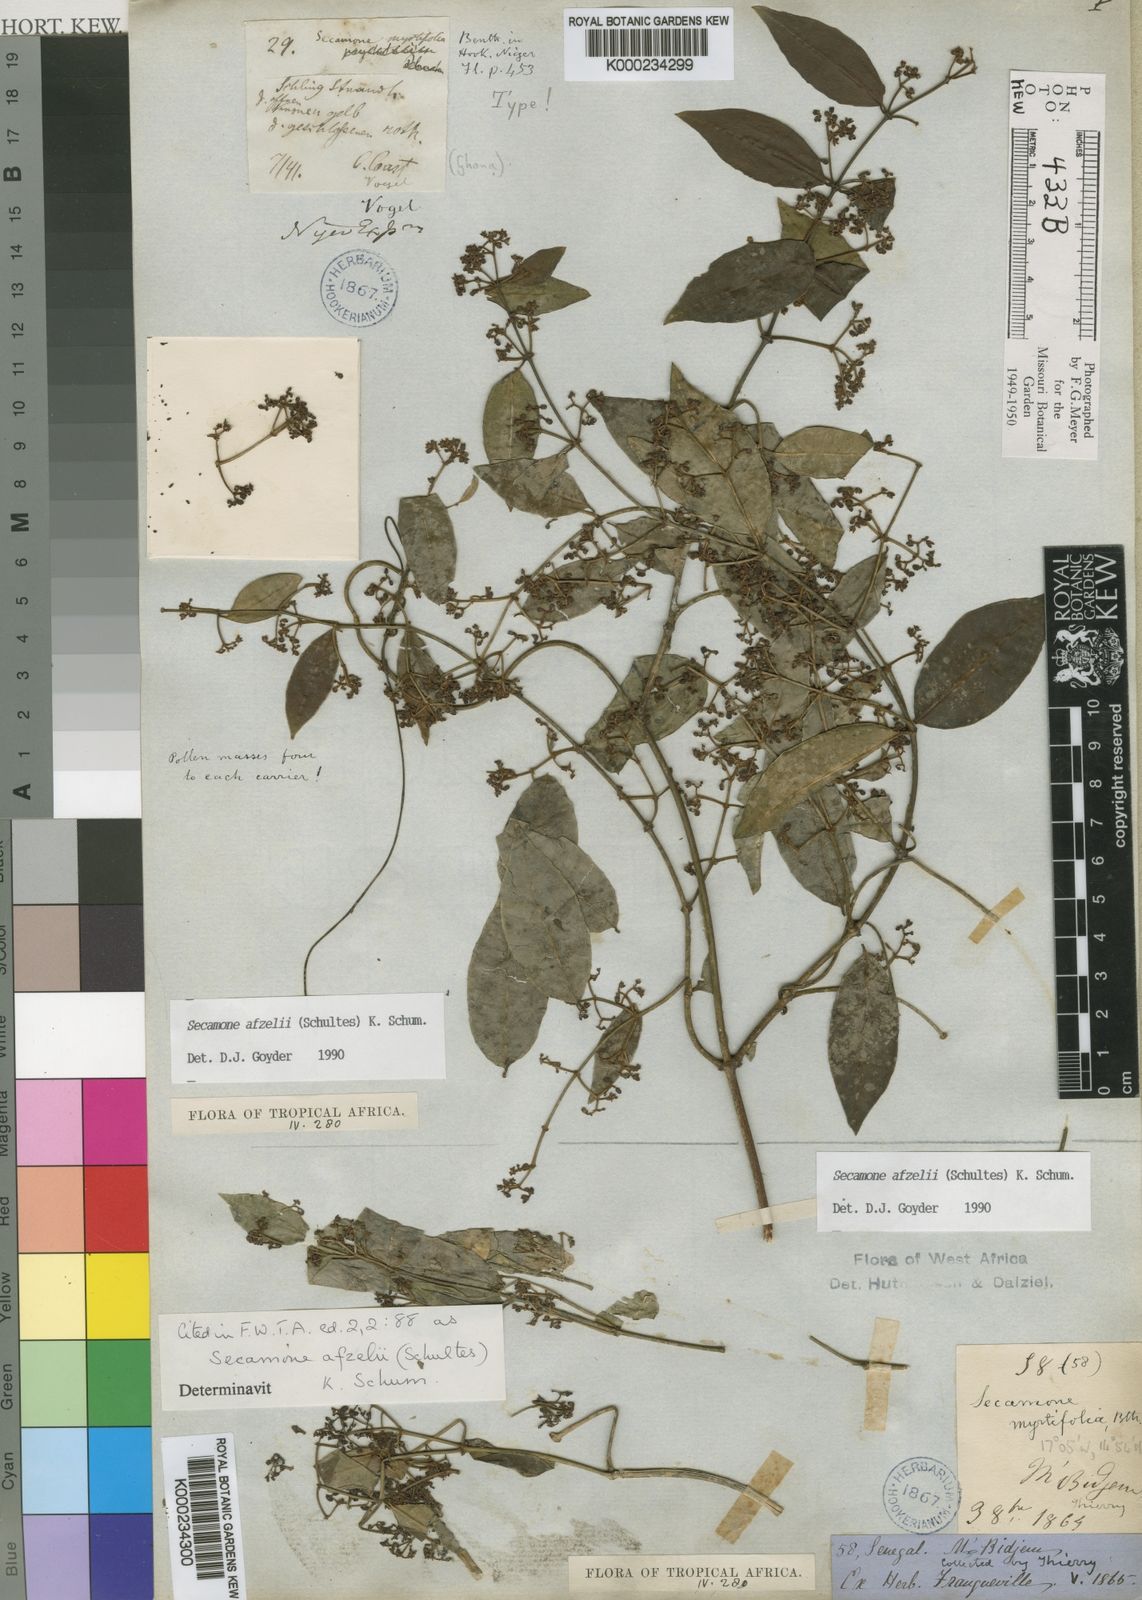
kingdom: Plantae
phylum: Tracheophyta
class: Magnoliopsida
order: Gentianales
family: Apocynaceae
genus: Secamone
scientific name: Secamone afzelii
